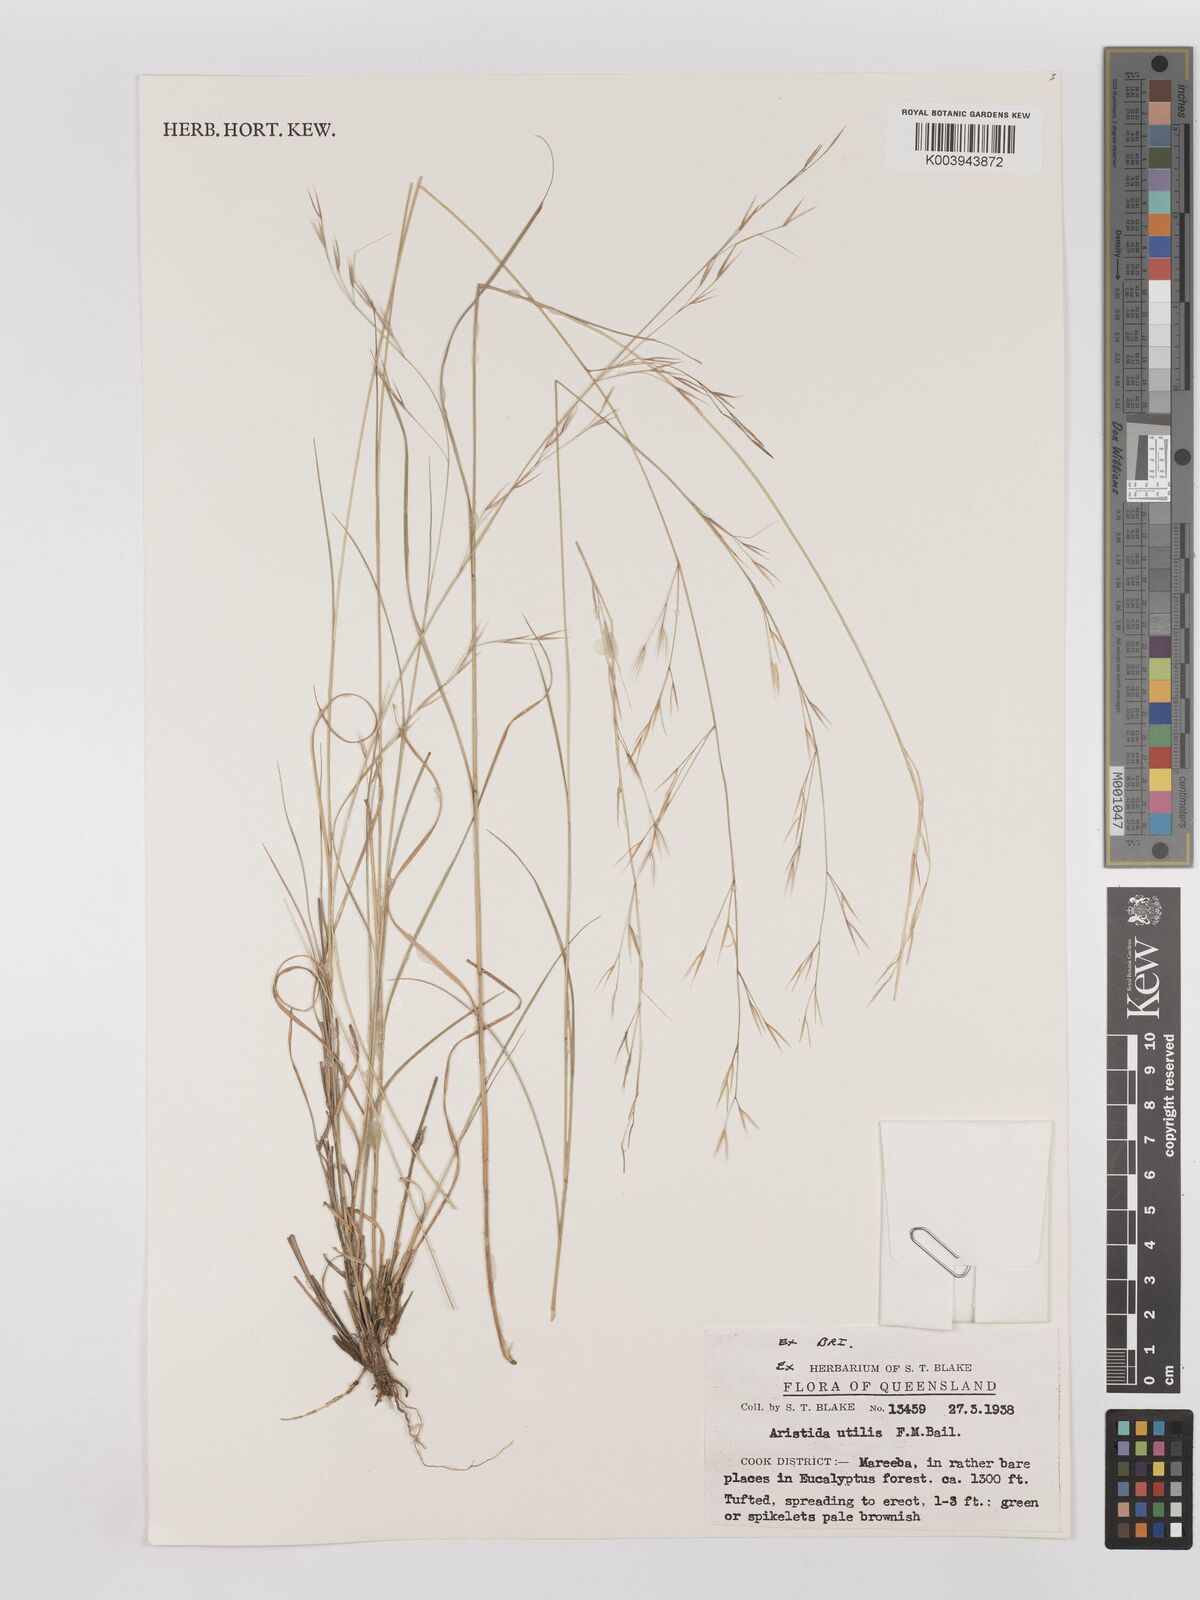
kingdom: Plantae
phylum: Tracheophyta
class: Liliopsida
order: Poales
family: Poaceae
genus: Aristida
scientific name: Aristida utilis
